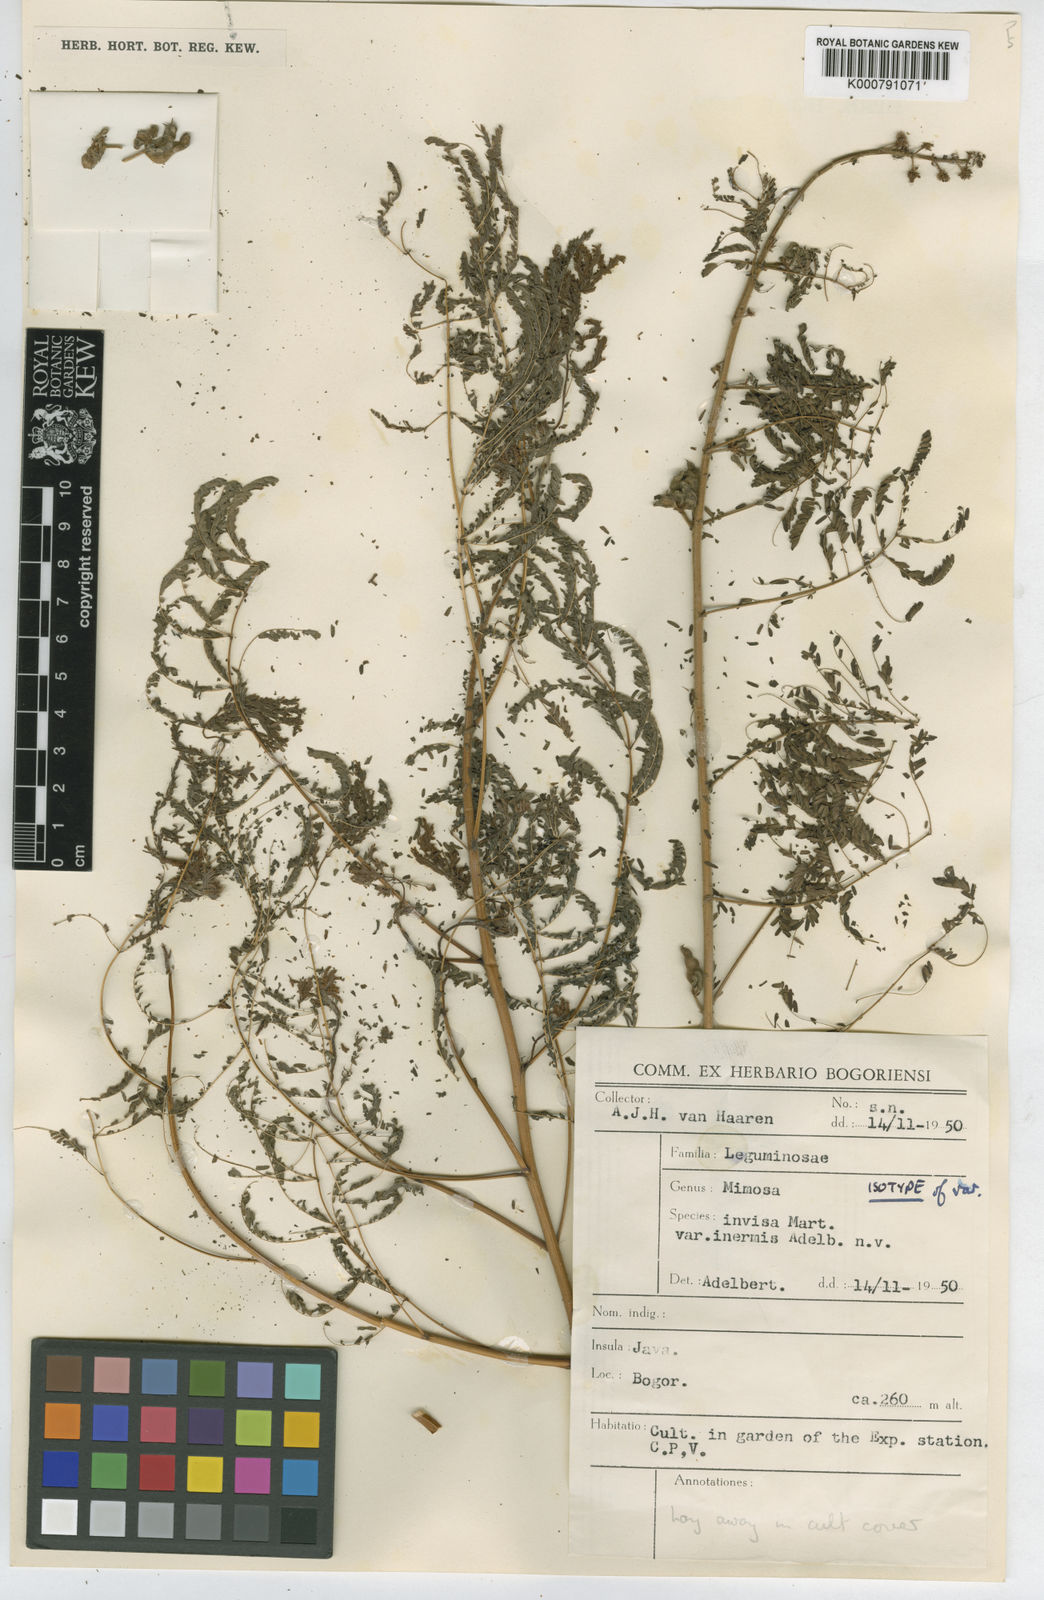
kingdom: Plantae
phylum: Tracheophyta
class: Magnoliopsida
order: Fabales
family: Fabaceae
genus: Mimosa
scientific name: Mimosa diplotricha
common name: Giant sensitive-plant
